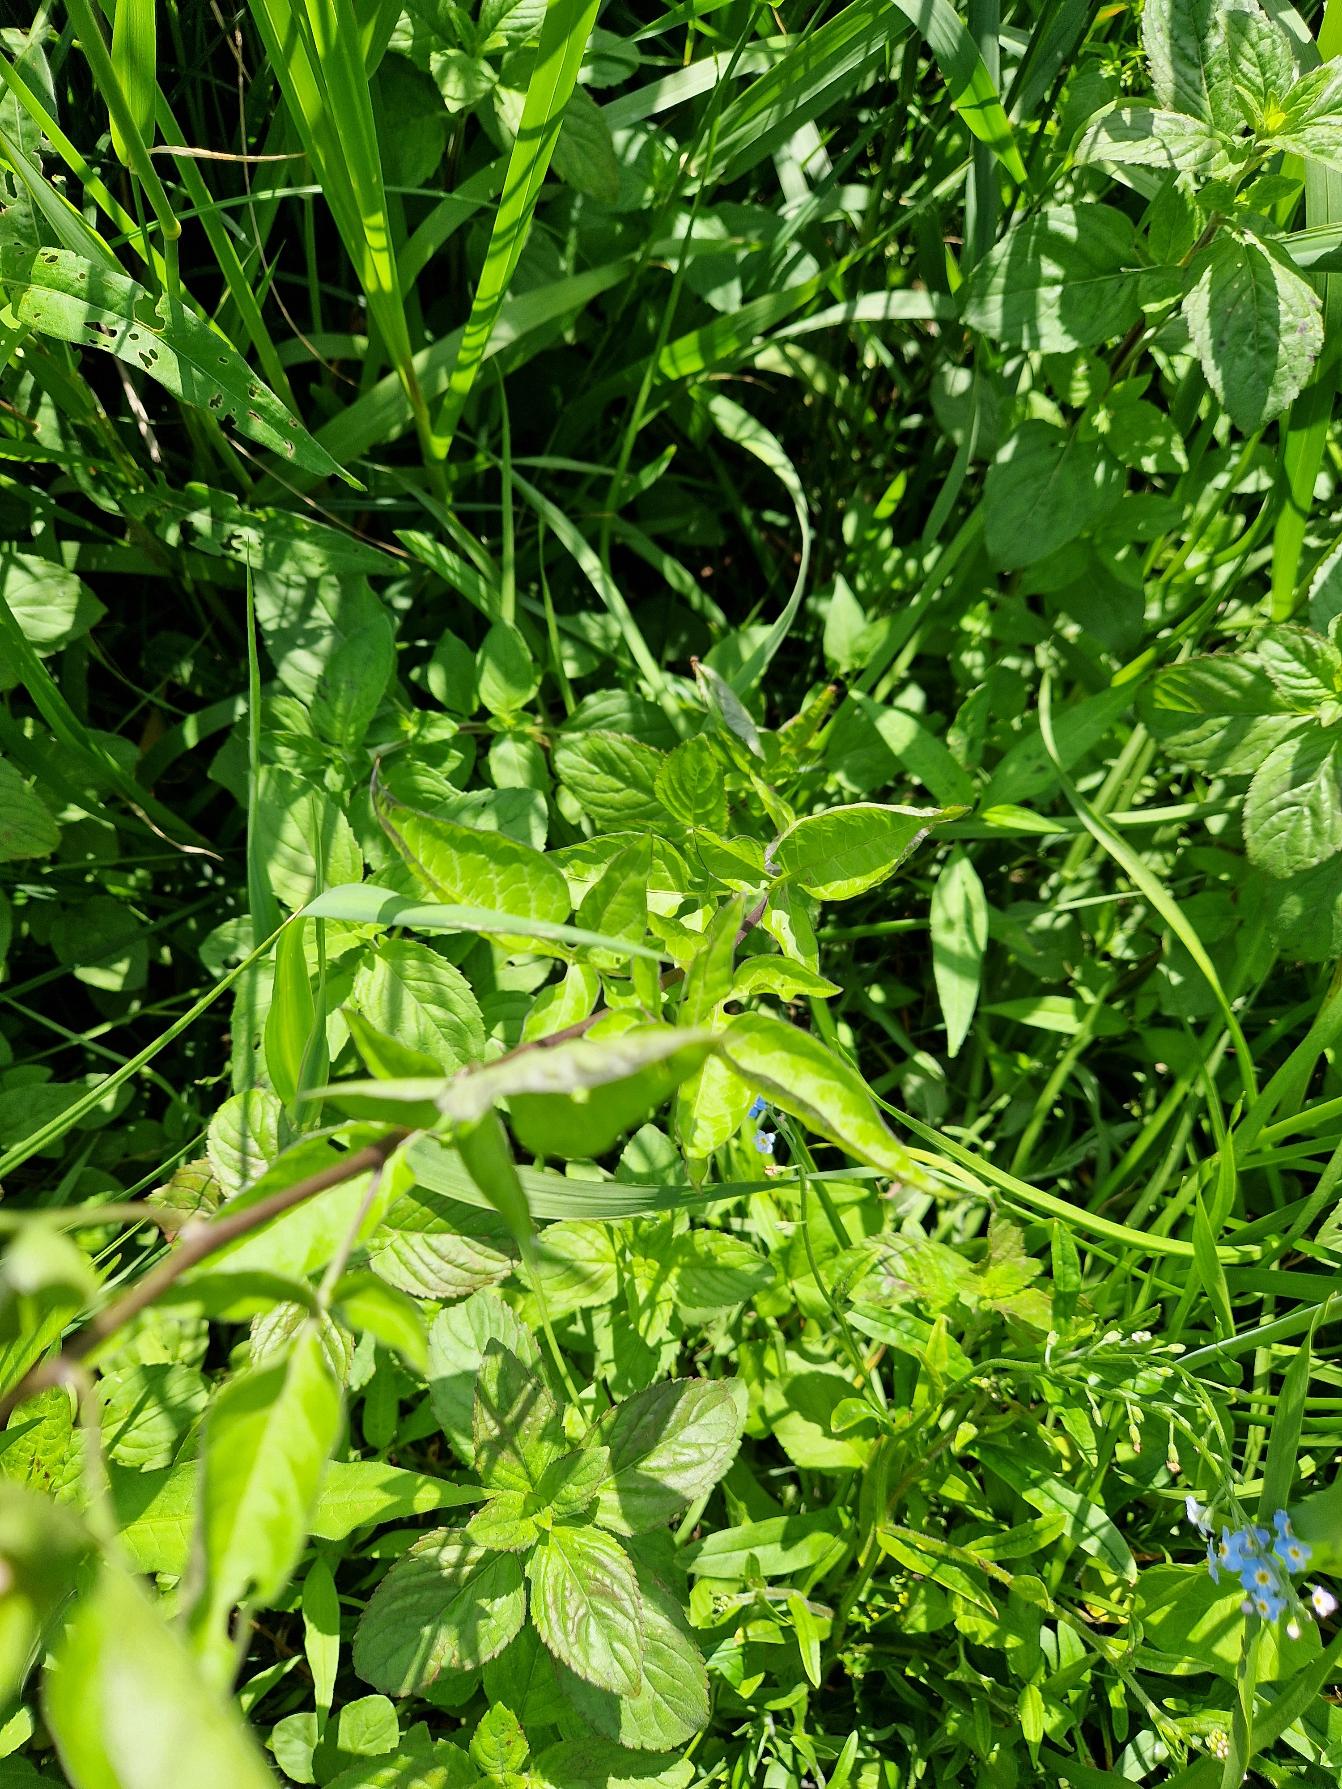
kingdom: Plantae
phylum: Tracheophyta
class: Magnoliopsida
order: Solanales
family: Solanaceae
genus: Solanum
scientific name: Solanum dulcamara
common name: Bittersød natskygge
